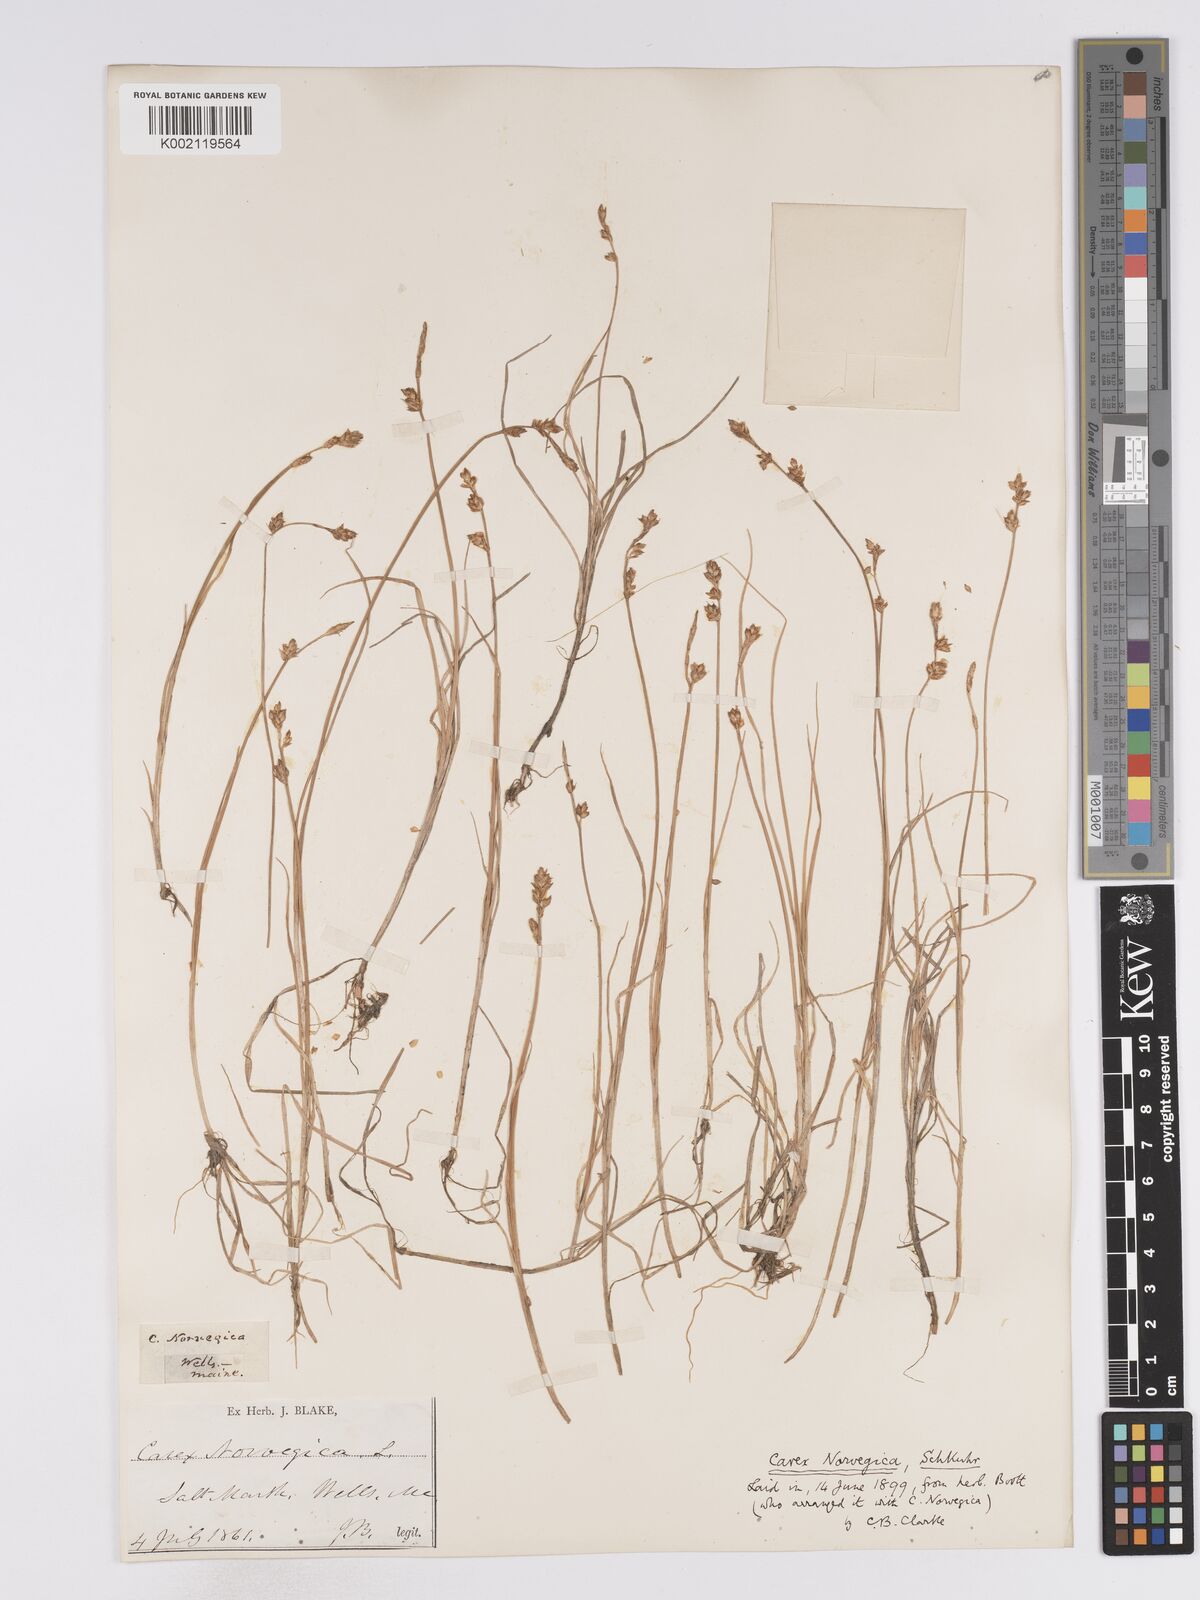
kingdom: Plantae
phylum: Tracheophyta
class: Liliopsida
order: Poales
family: Cyperaceae
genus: Carex
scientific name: Carex mackenziei
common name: Mackenzie's sedge
